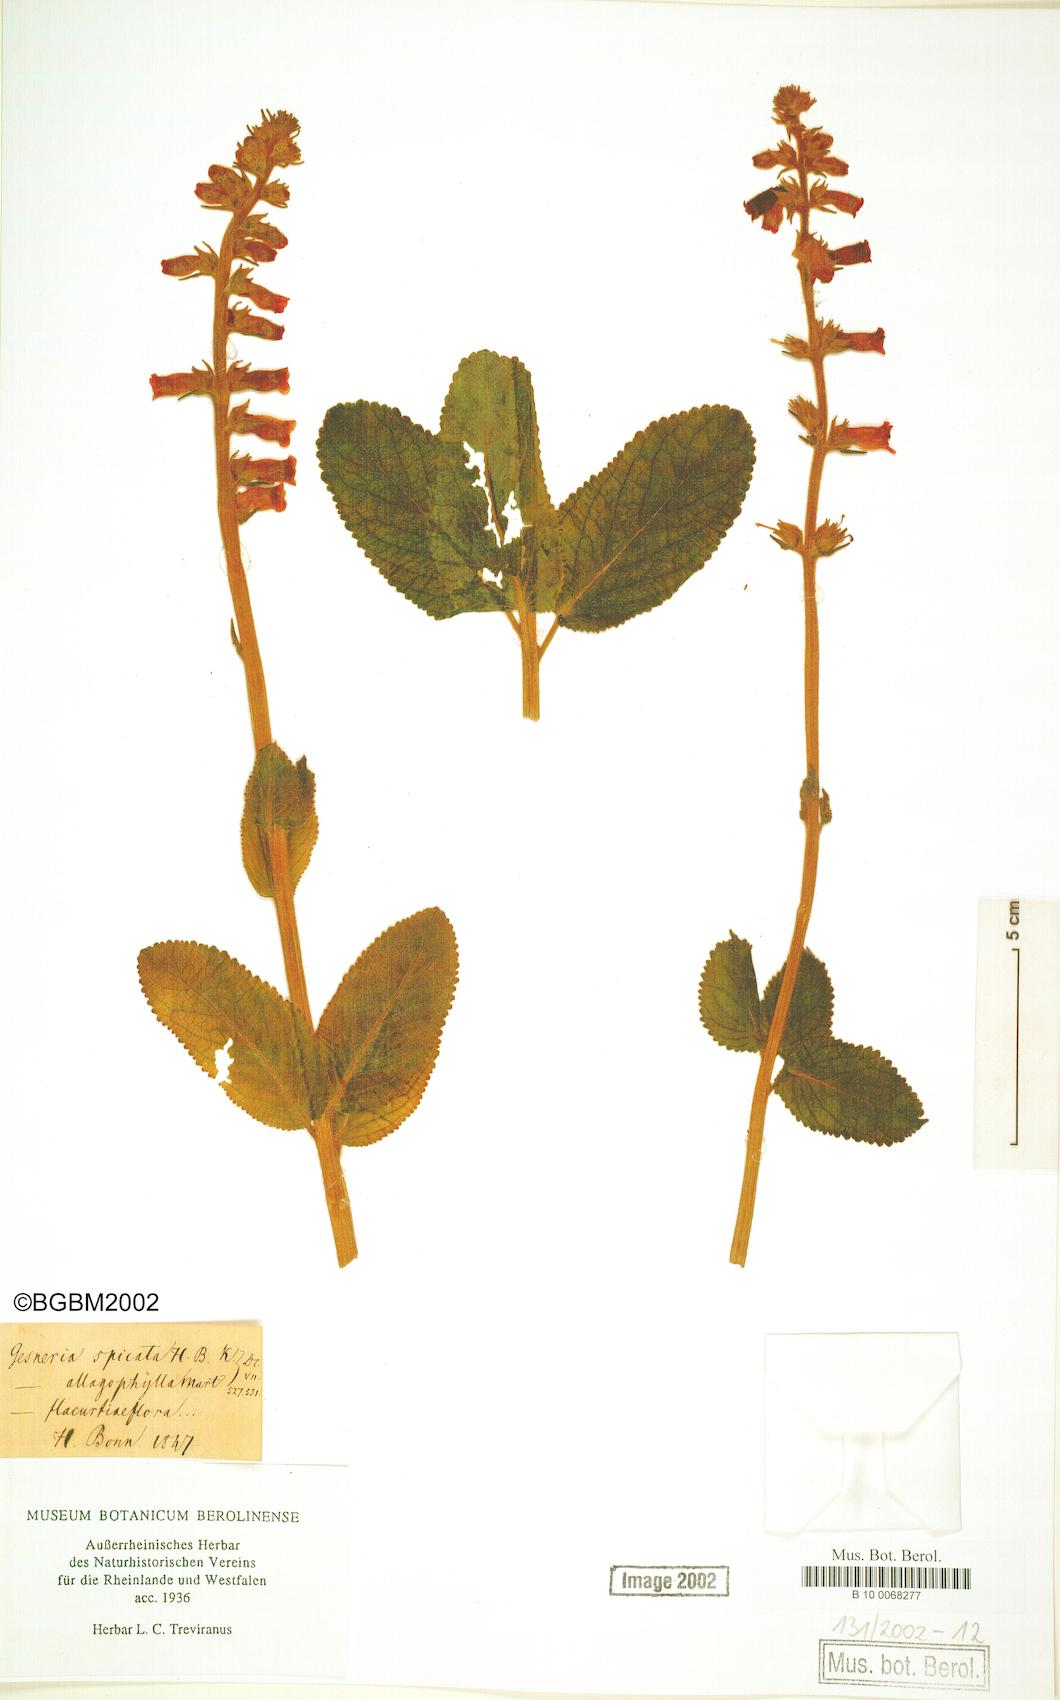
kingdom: Plantae
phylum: Tracheophyta
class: Magnoliopsida
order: Lamiales
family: Gesneriaceae
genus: Kohleria
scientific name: Kohleria spicata
